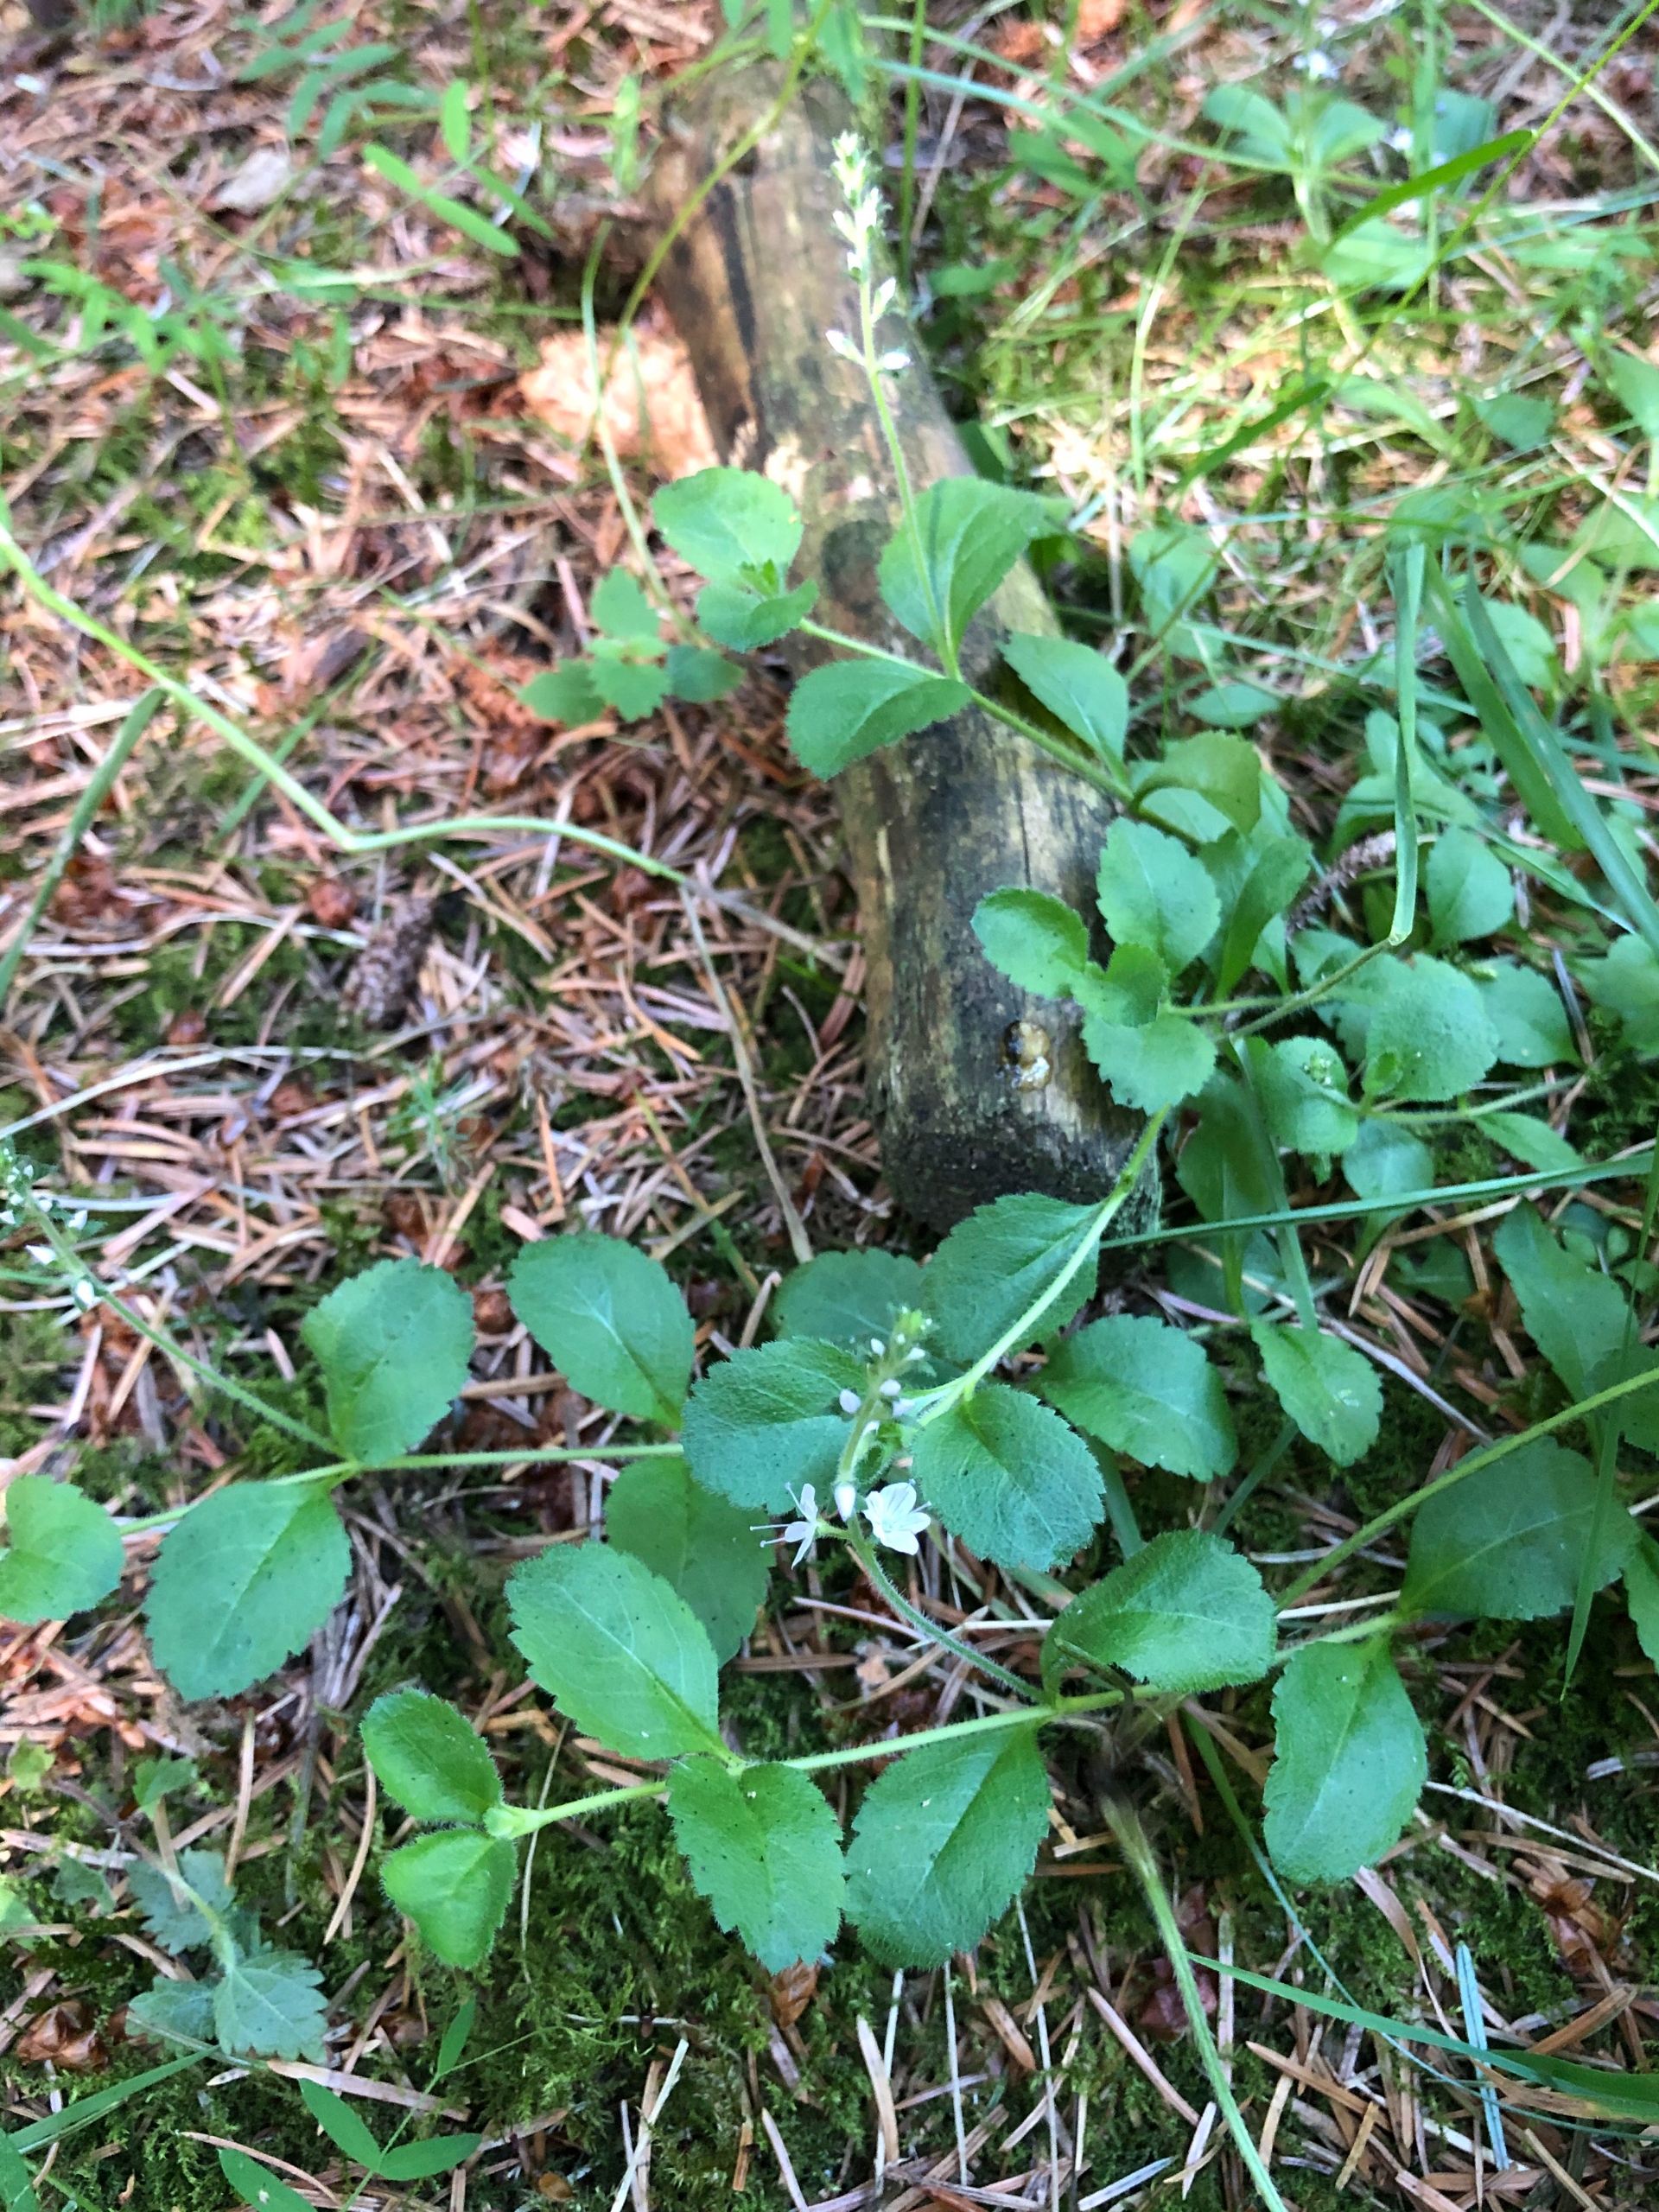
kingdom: Plantae
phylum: Tracheophyta
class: Magnoliopsida
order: Lamiales
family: Plantaginaceae
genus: Veronica
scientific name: Veronica officinalis
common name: Læge-ærenpris
